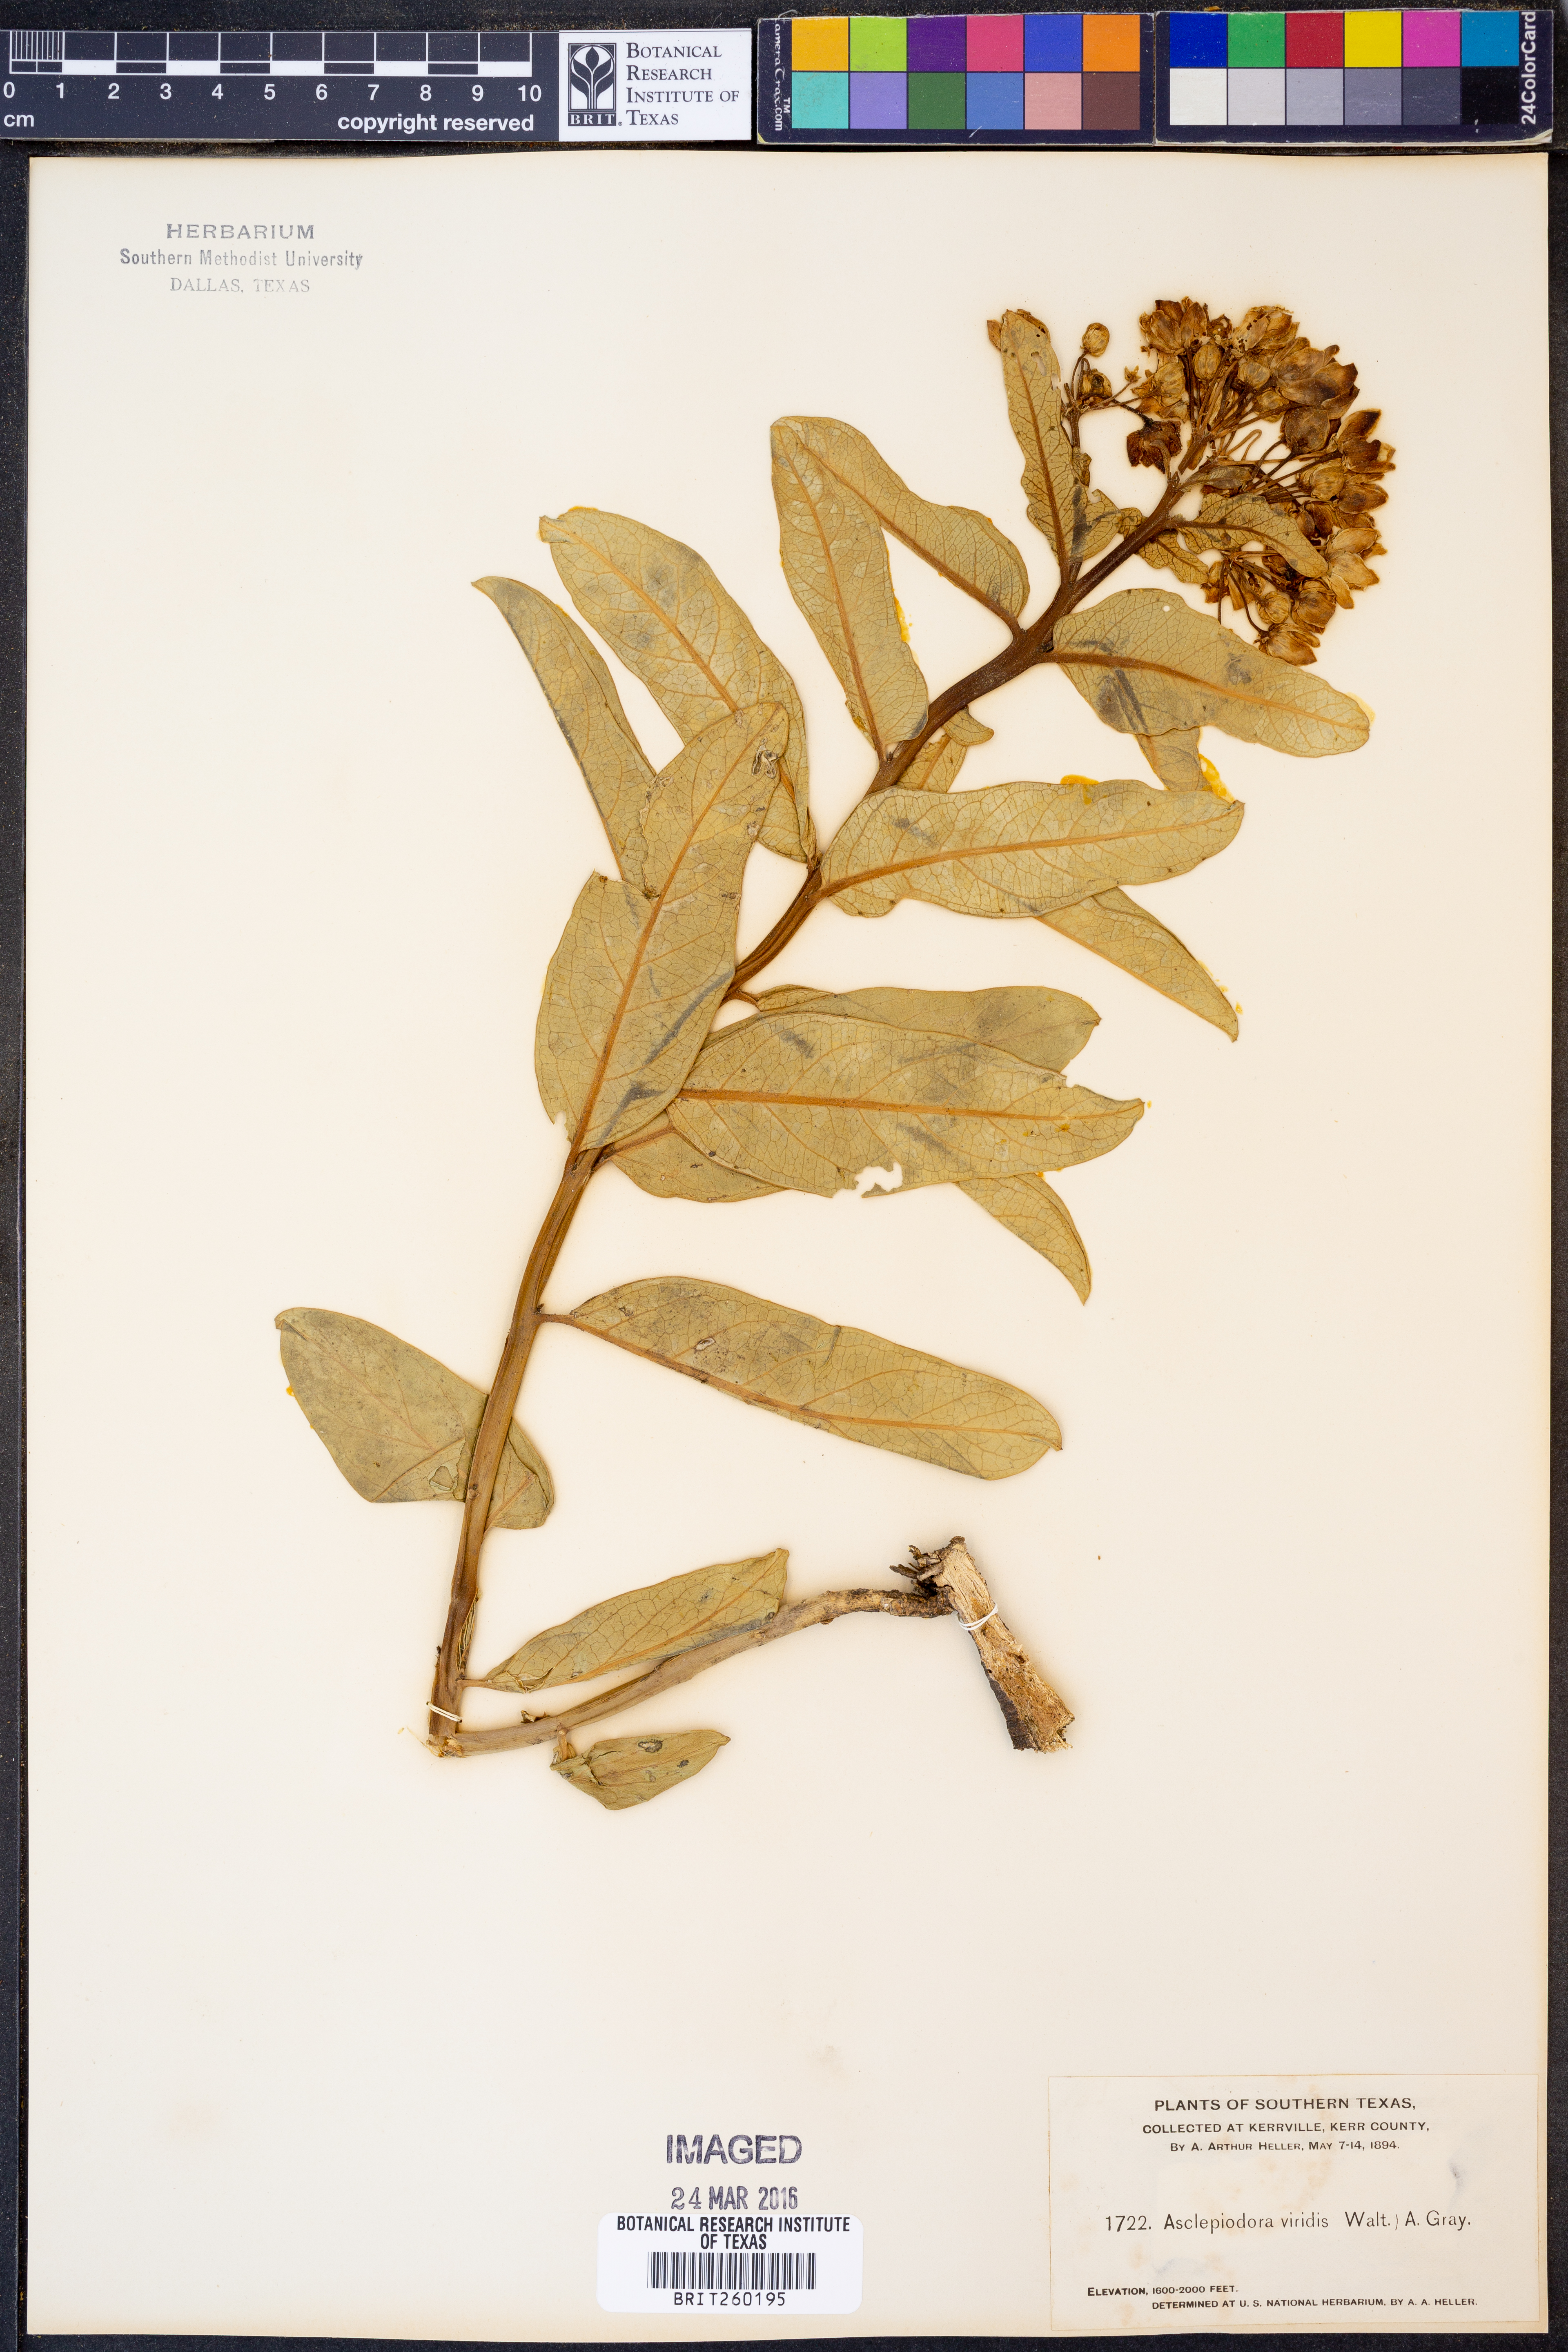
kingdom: Plantae
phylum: Tracheophyta
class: Magnoliopsida
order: Gentianales
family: Apocynaceae
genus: Asclepias
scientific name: Asclepias viridis
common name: Antelope-horns
